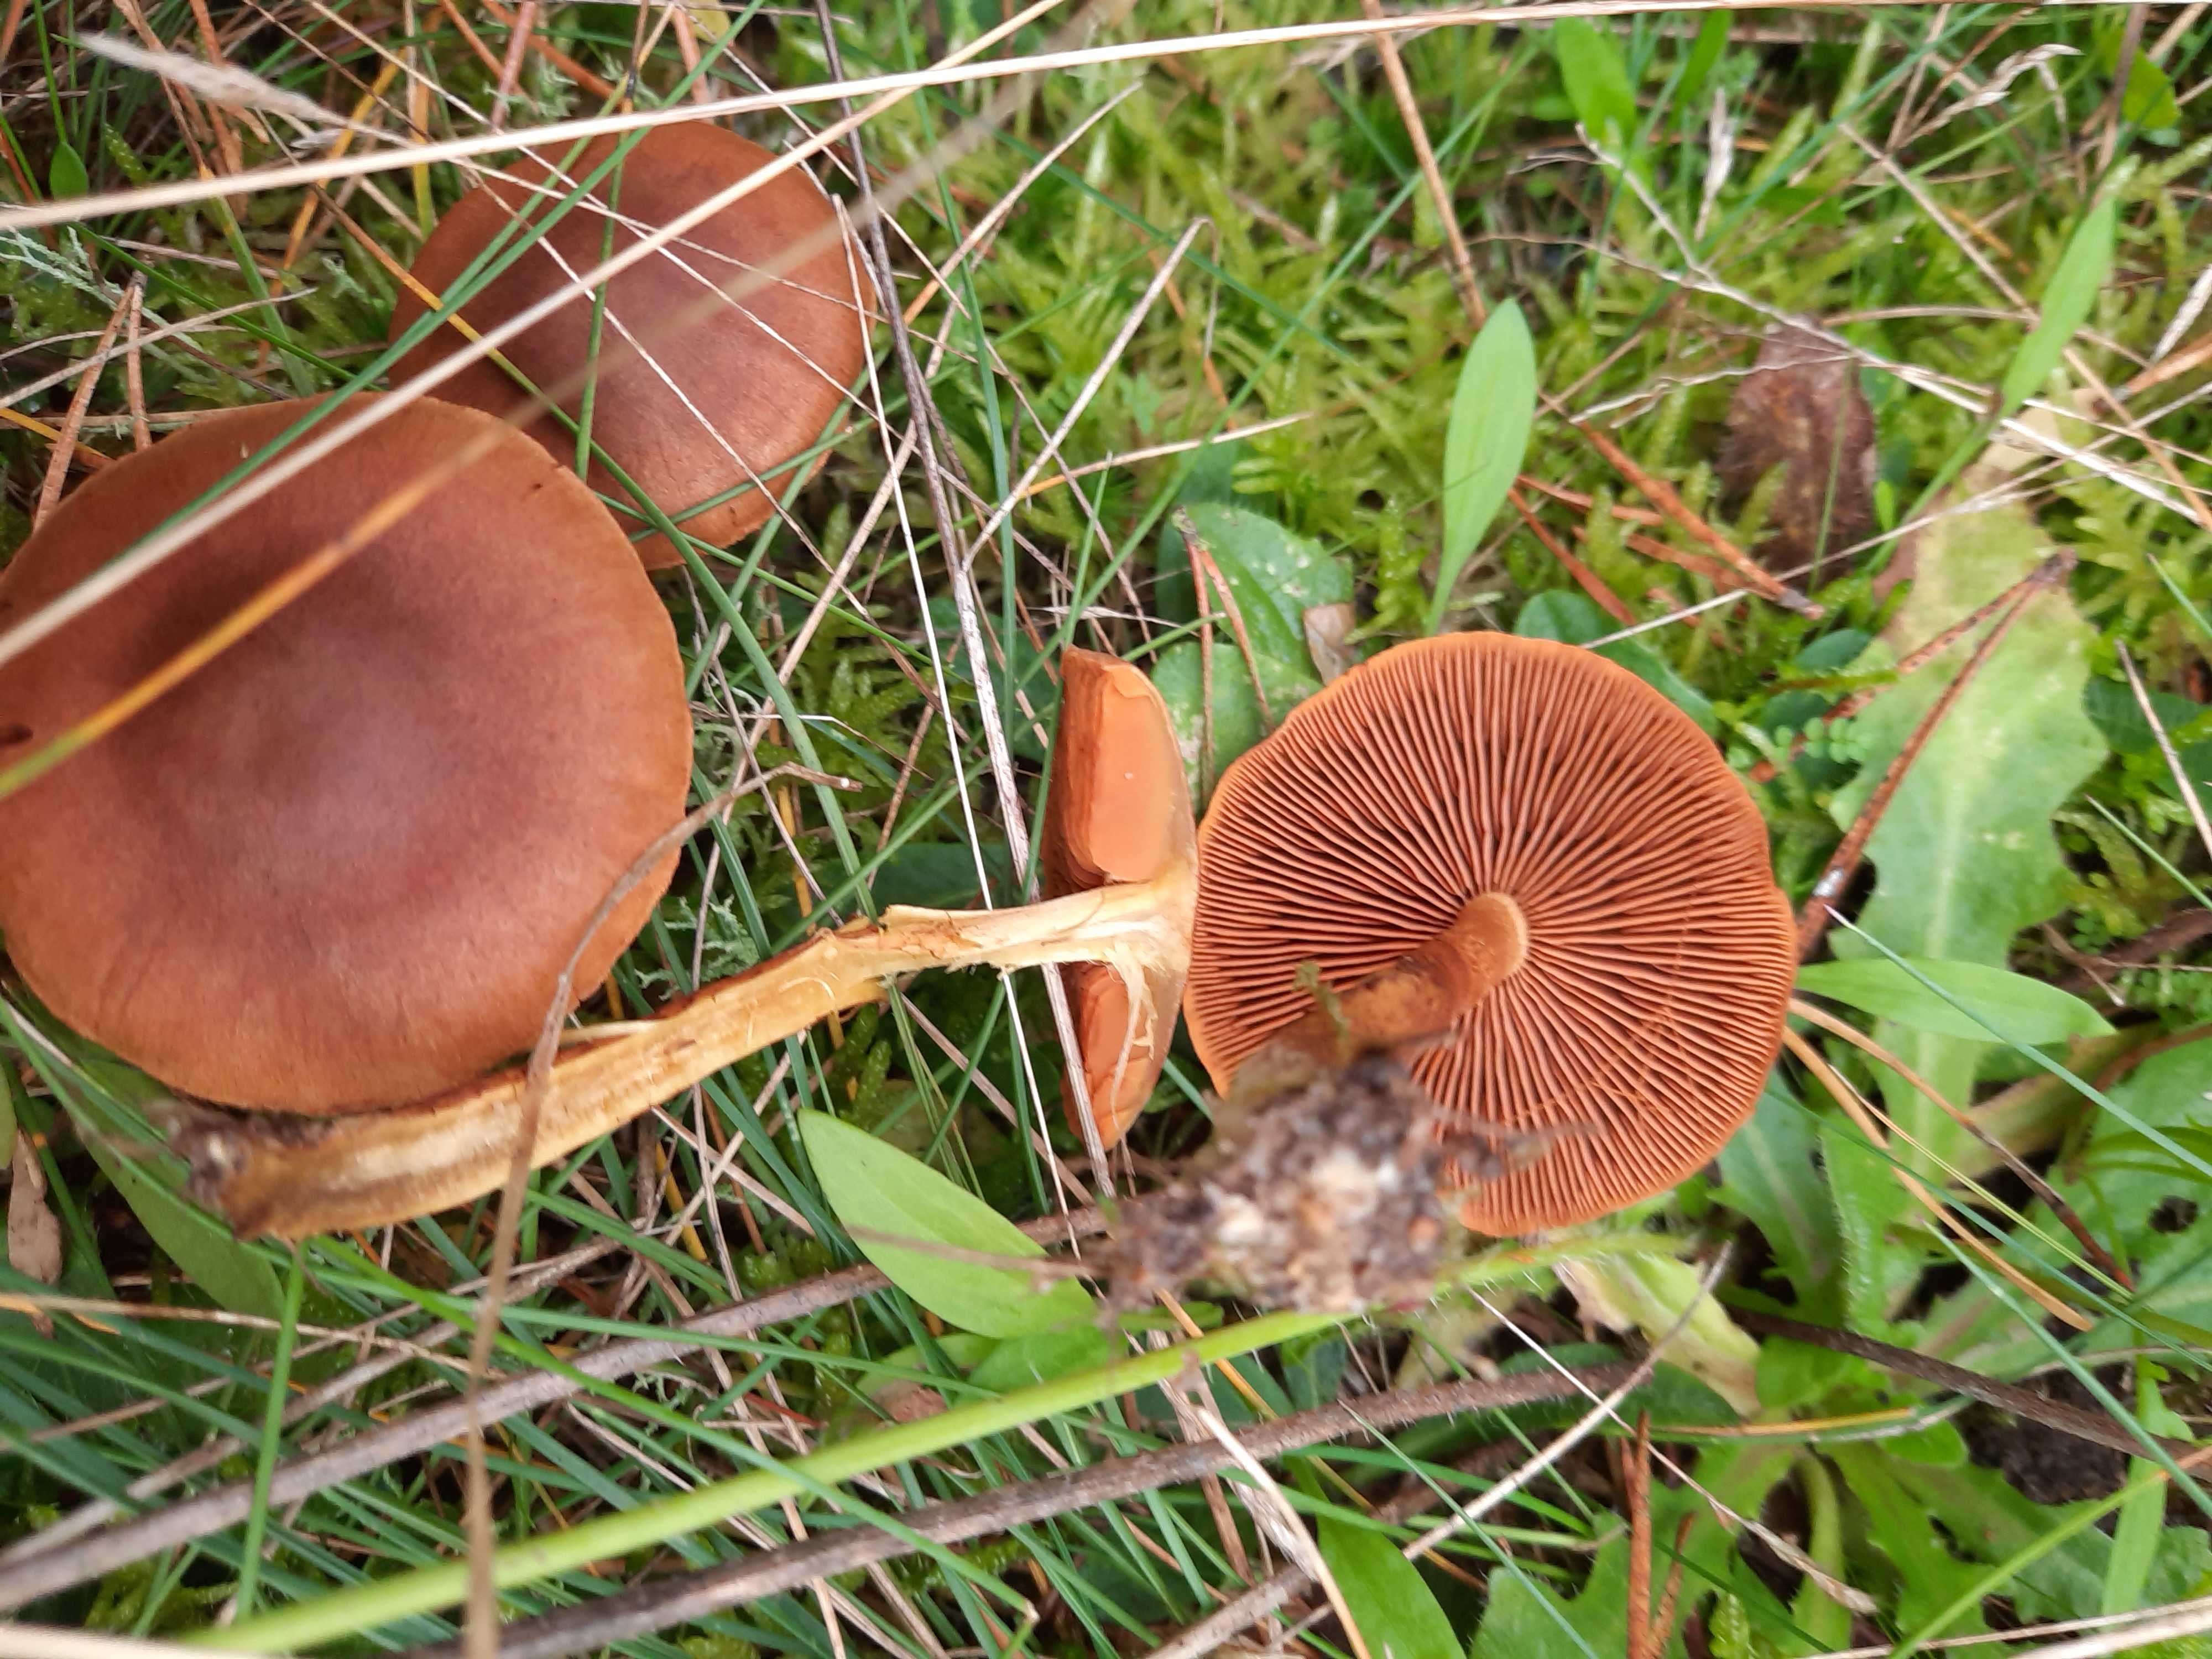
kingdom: Fungi
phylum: Basidiomycota
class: Agaricomycetes
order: Agaricales
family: Cortinariaceae
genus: Cortinarius
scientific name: Cortinarius cinnamomeus
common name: kanel-slørhat
